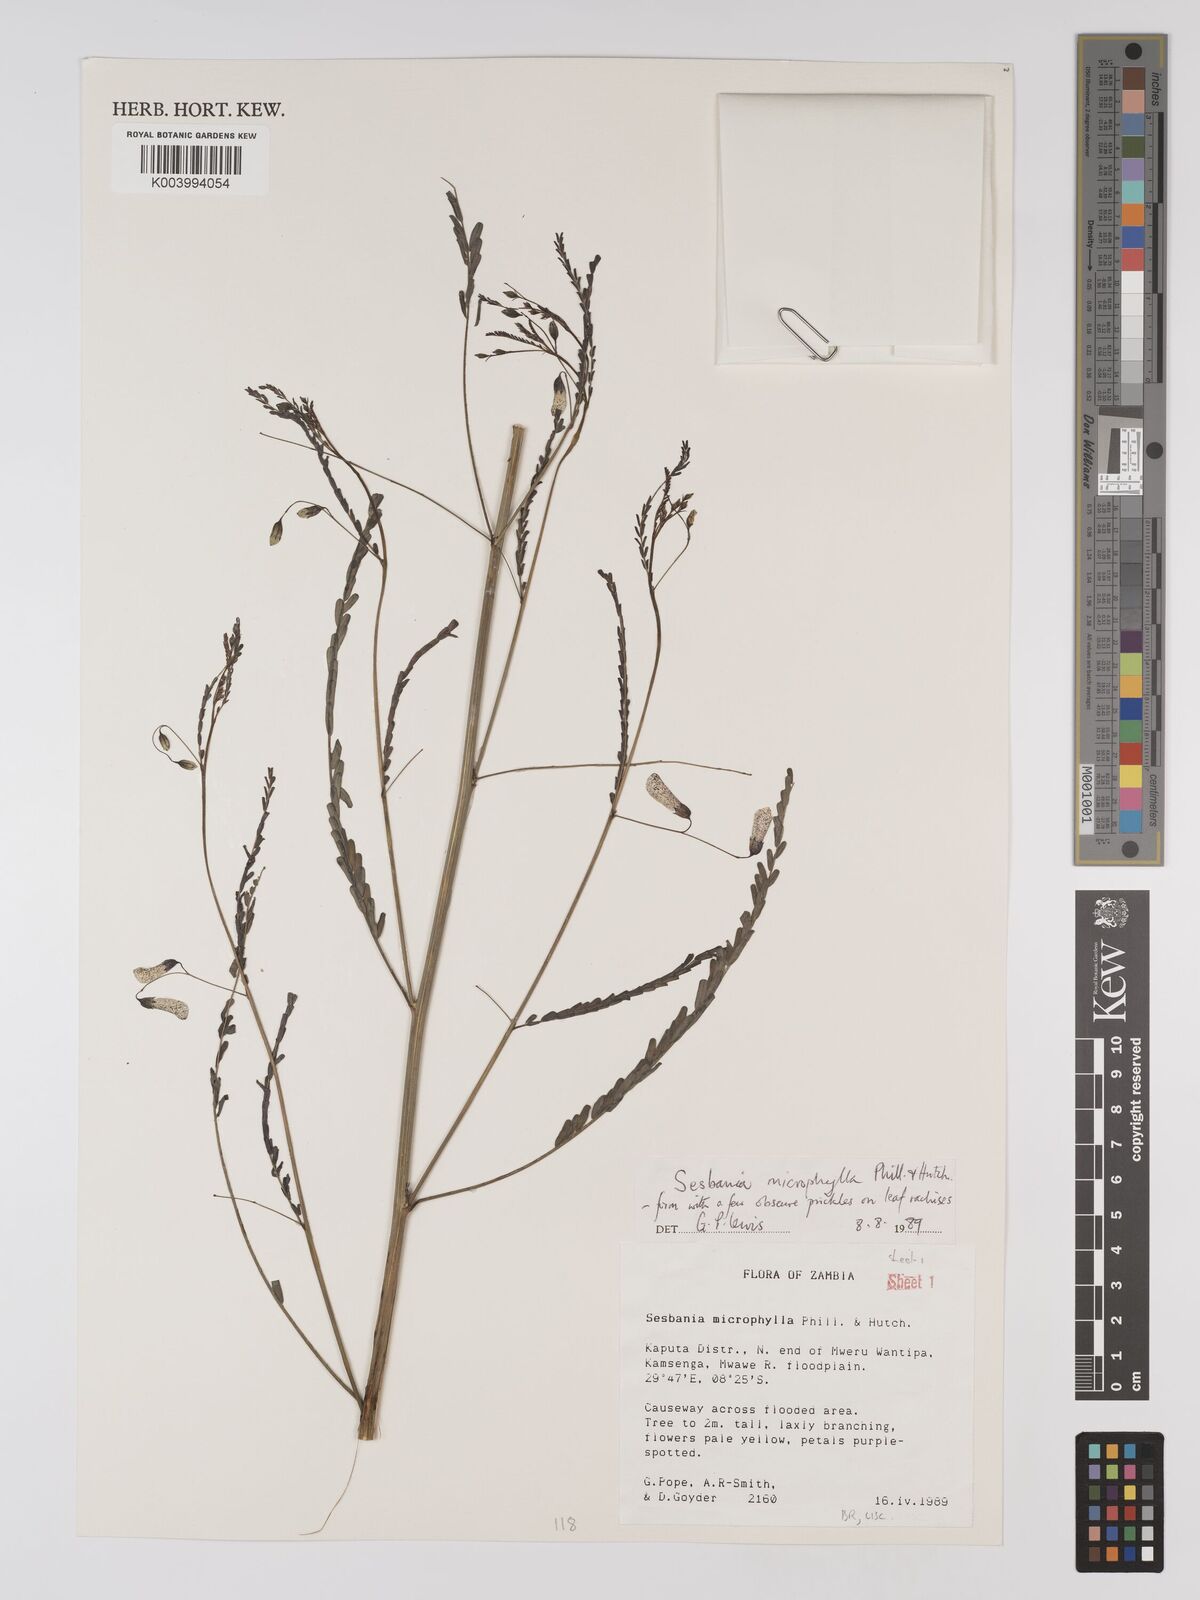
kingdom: Plantae
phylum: Tracheophyta
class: Magnoliopsida
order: Fabales
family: Fabaceae
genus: Sesbania
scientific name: Sesbania microphylla
